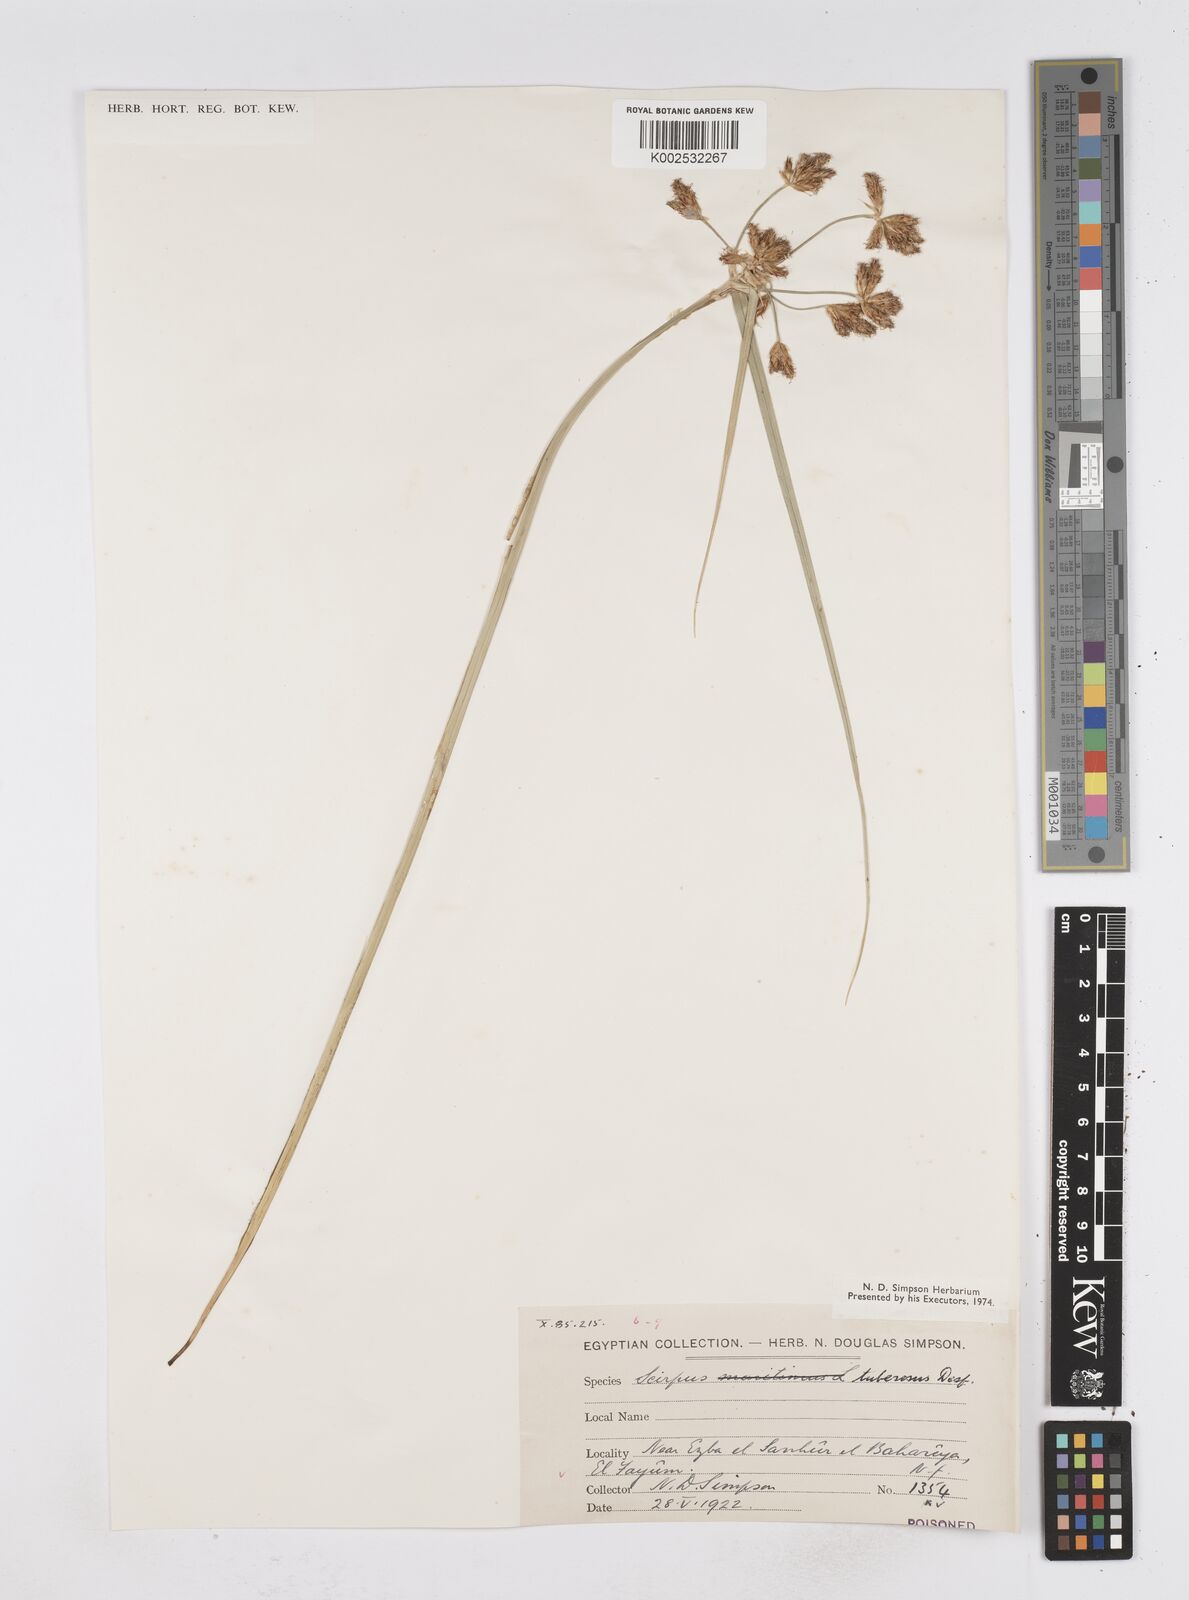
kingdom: Plantae
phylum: Tracheophyta
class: Liliopsida
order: Poales
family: Cyperaceae
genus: Bolboschoenus
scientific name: Bolboschoenus maritimus
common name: Sea club-rush
